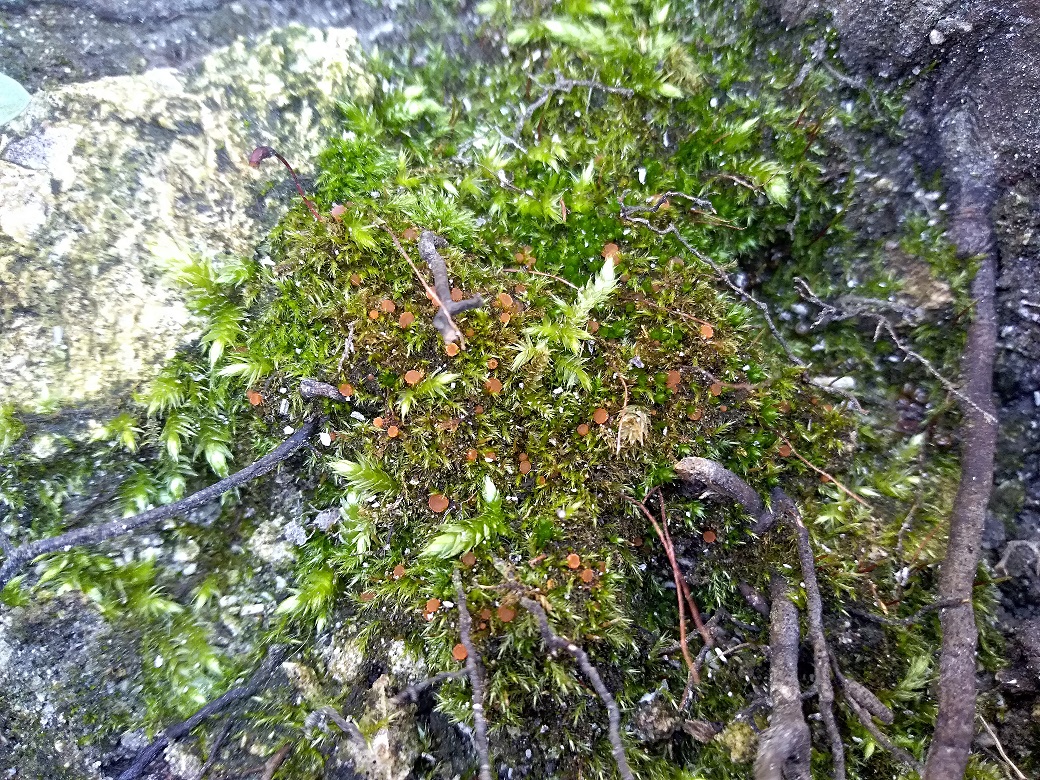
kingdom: Fungi
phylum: Ascomycota
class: Pezizomycetes
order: Pezizales
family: Pyronemataceae
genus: Lamprospora
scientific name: Lamprospora wrightii
